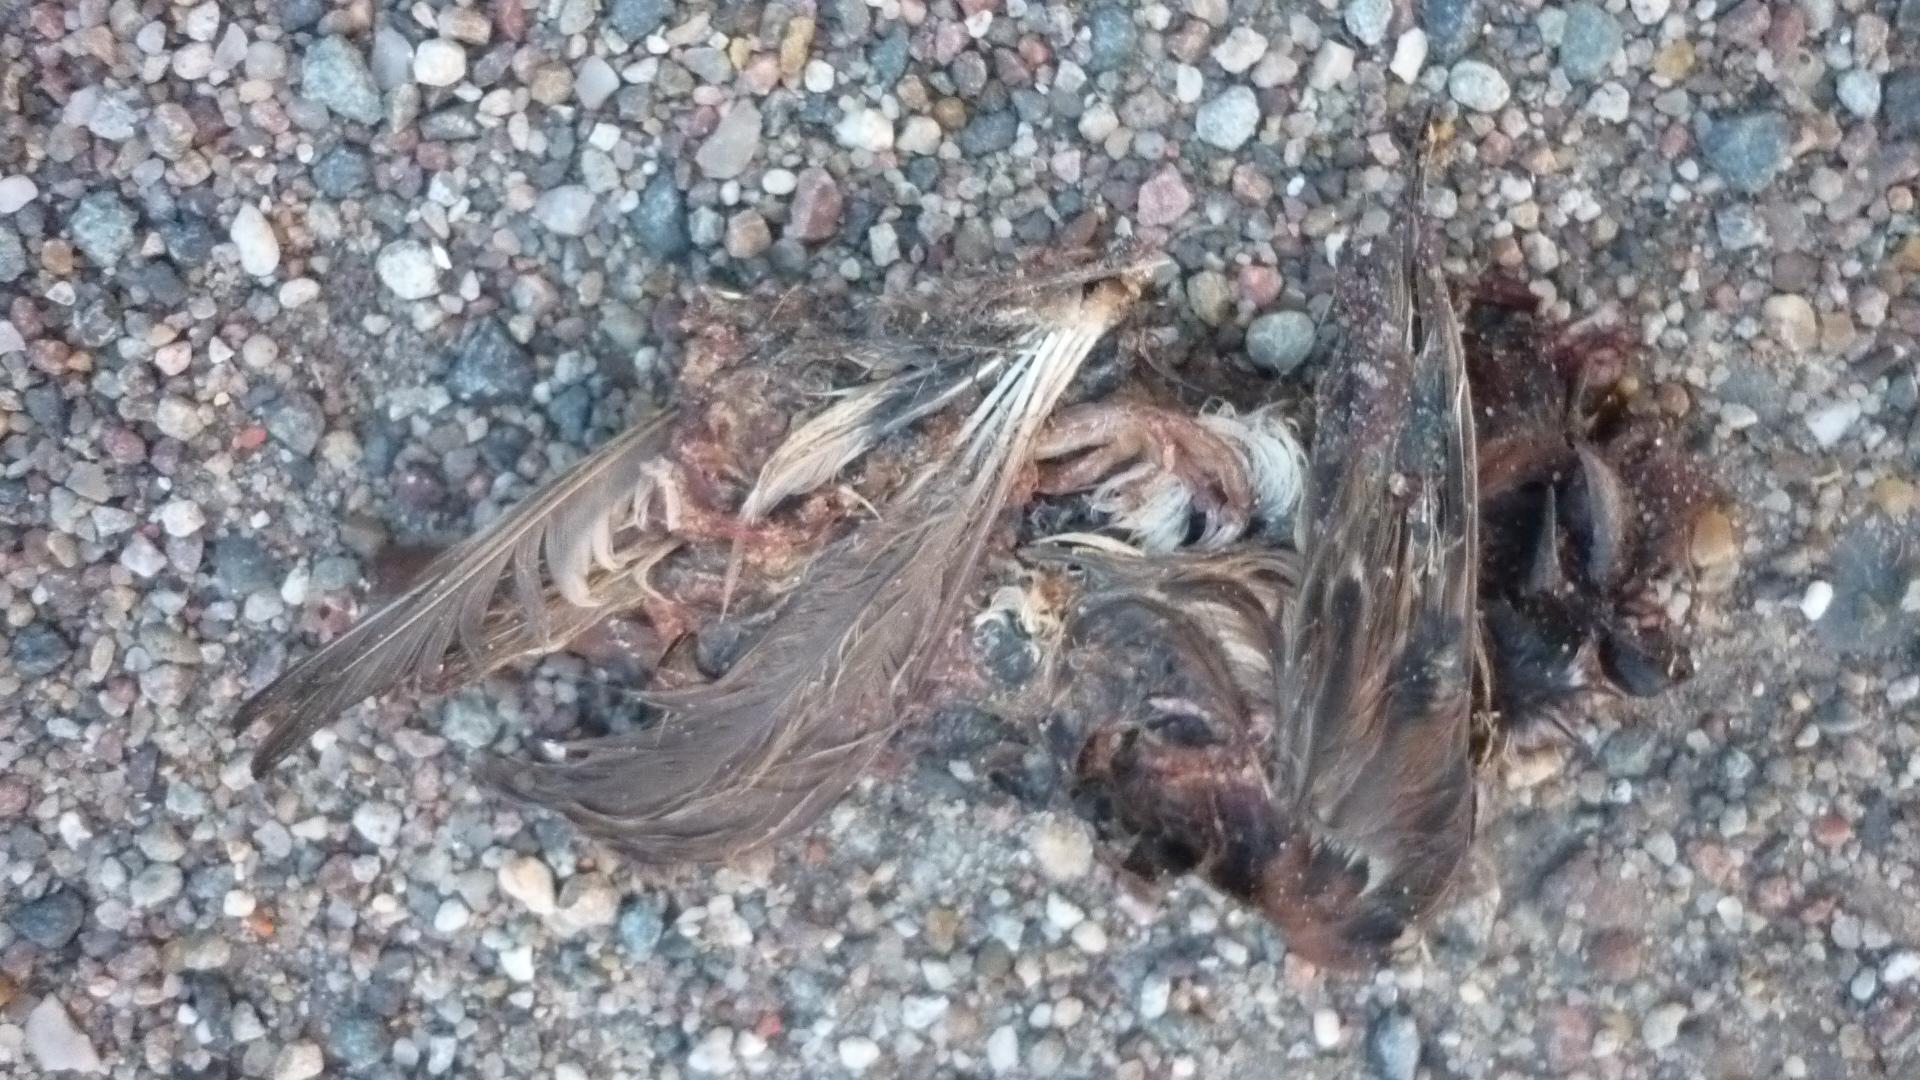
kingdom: Animalia
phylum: Chordata
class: Aves
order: Passeriformes
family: Passeridae
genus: Passer
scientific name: Passer
